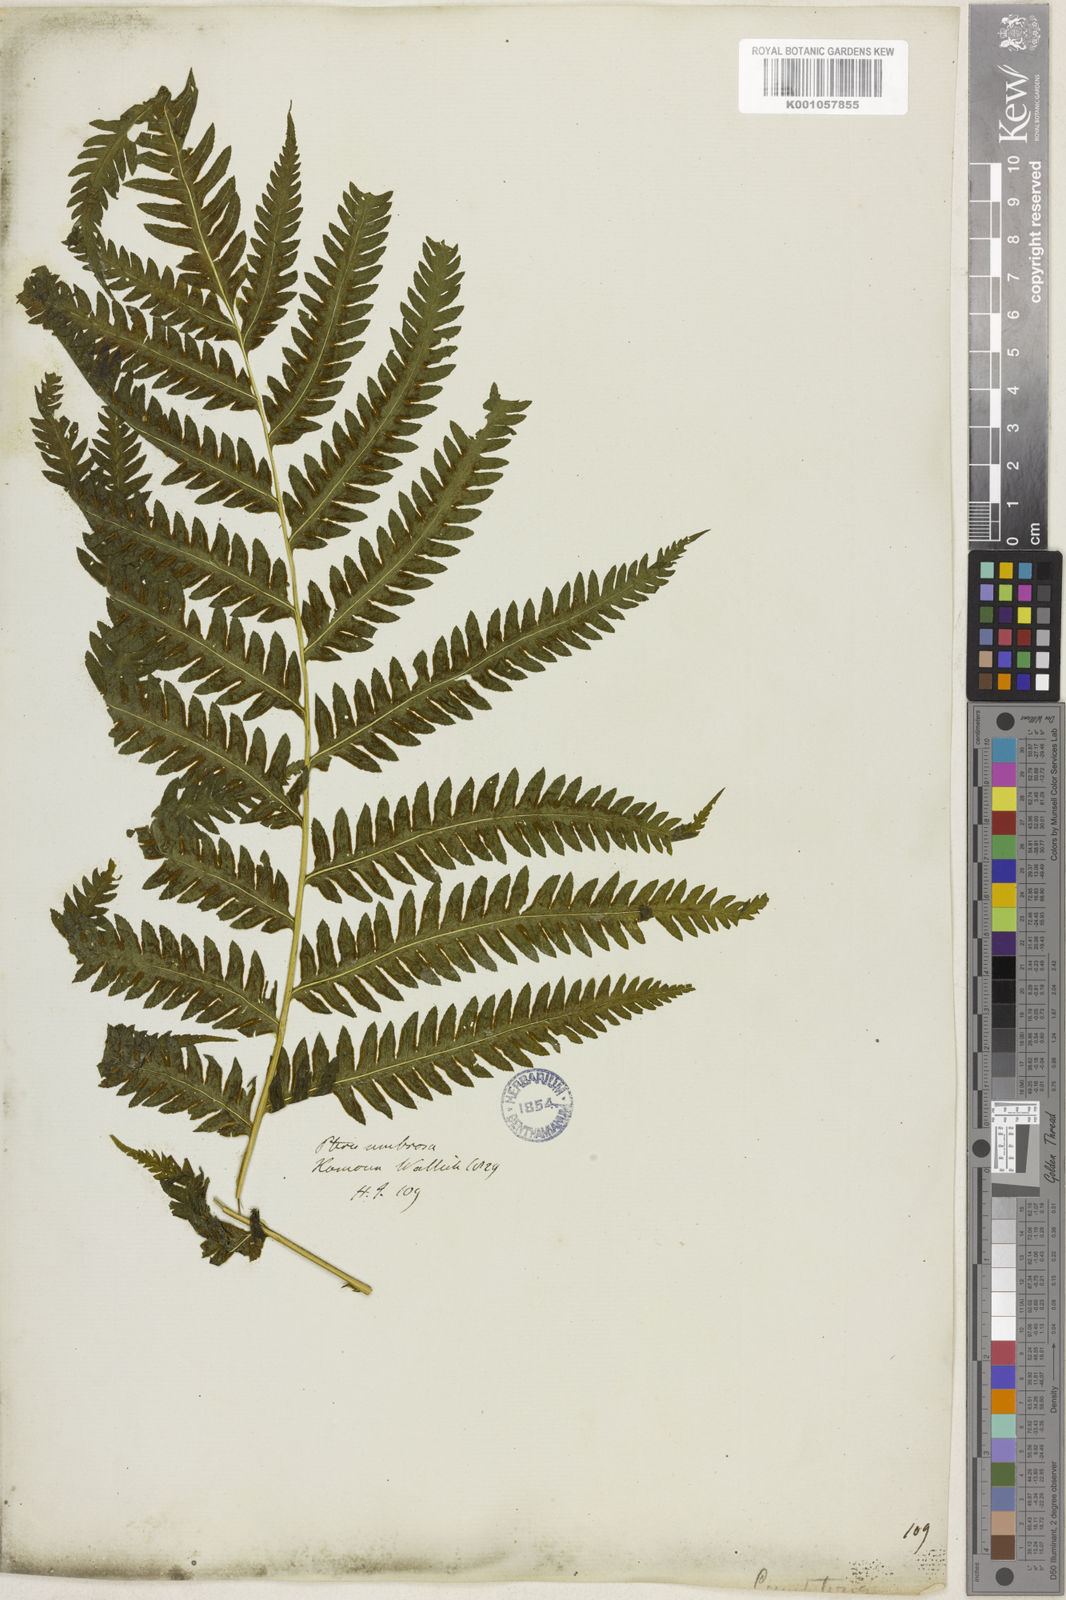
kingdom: Plantae
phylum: Tracheophyta
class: Polypodiopsida
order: Polypodiales
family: Pteridaceae
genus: Pteris
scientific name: Pteris longipes
